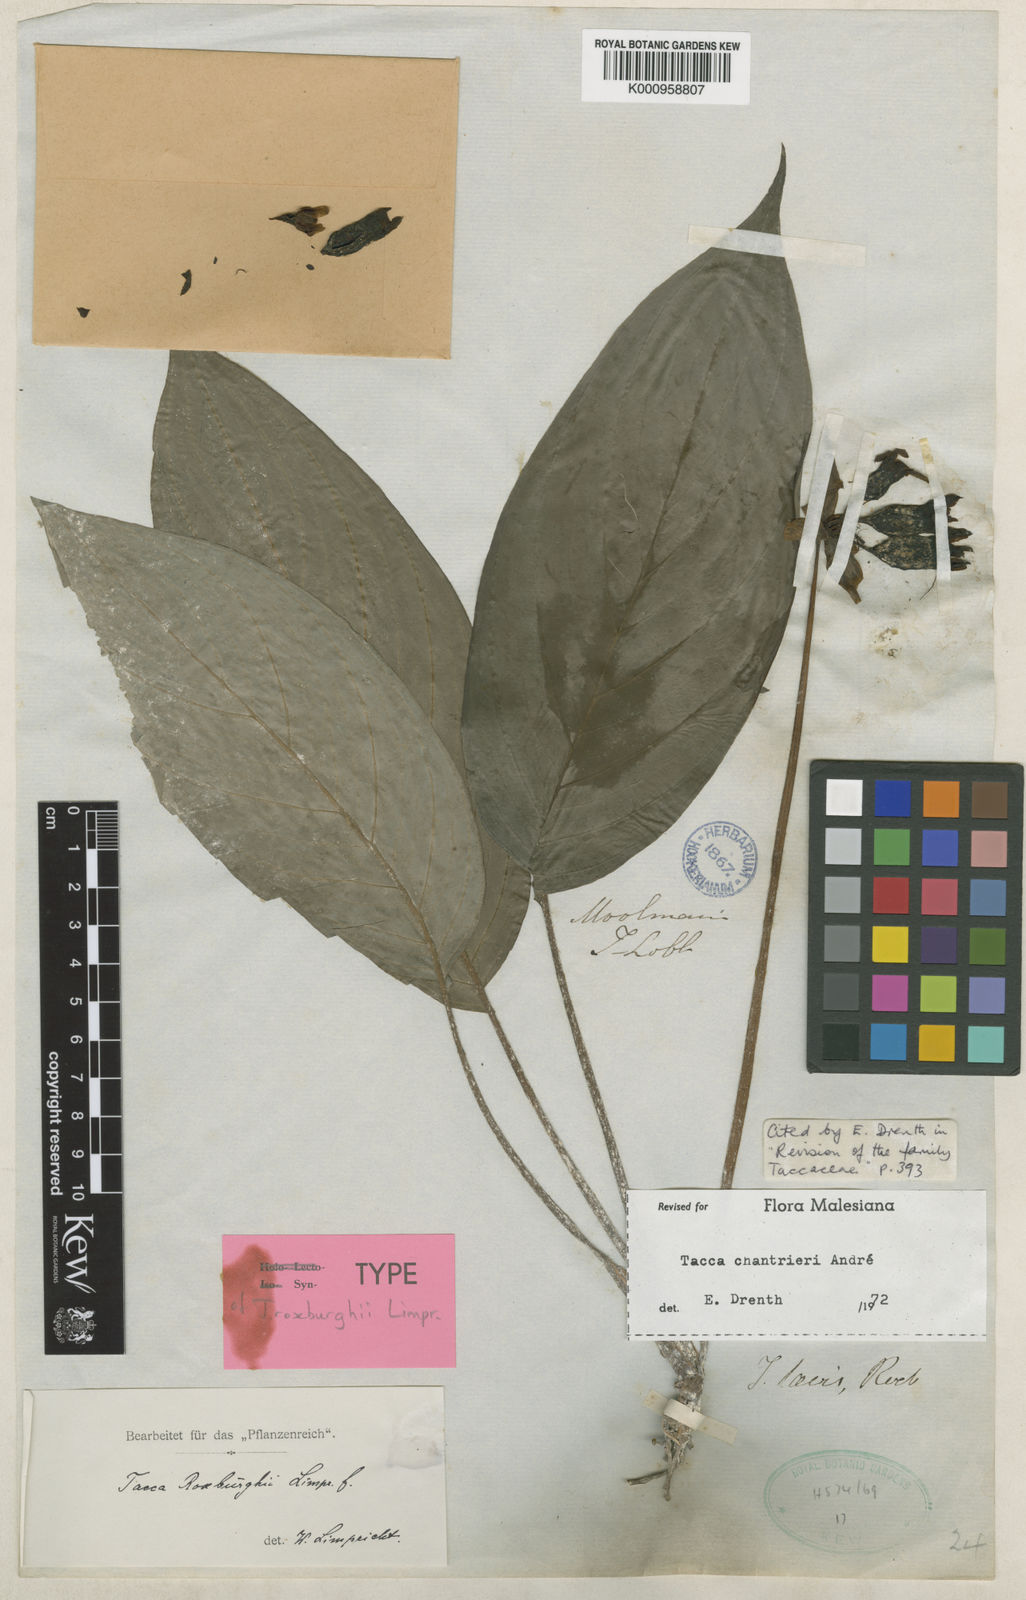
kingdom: Plantae
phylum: Tracheophyta
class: Liliopsida
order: Dioscoreales
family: Dioscoreaceae
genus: Tacca
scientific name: Tacca
